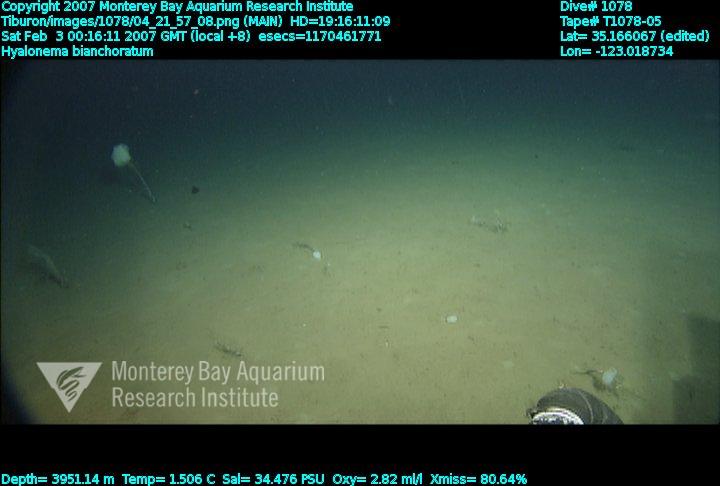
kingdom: Animalia
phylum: Porifera
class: Hexactinellida
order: Amphidiscosida
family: Hyalonematidae
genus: Hyalonema
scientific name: Hyalonema bianchoratum
